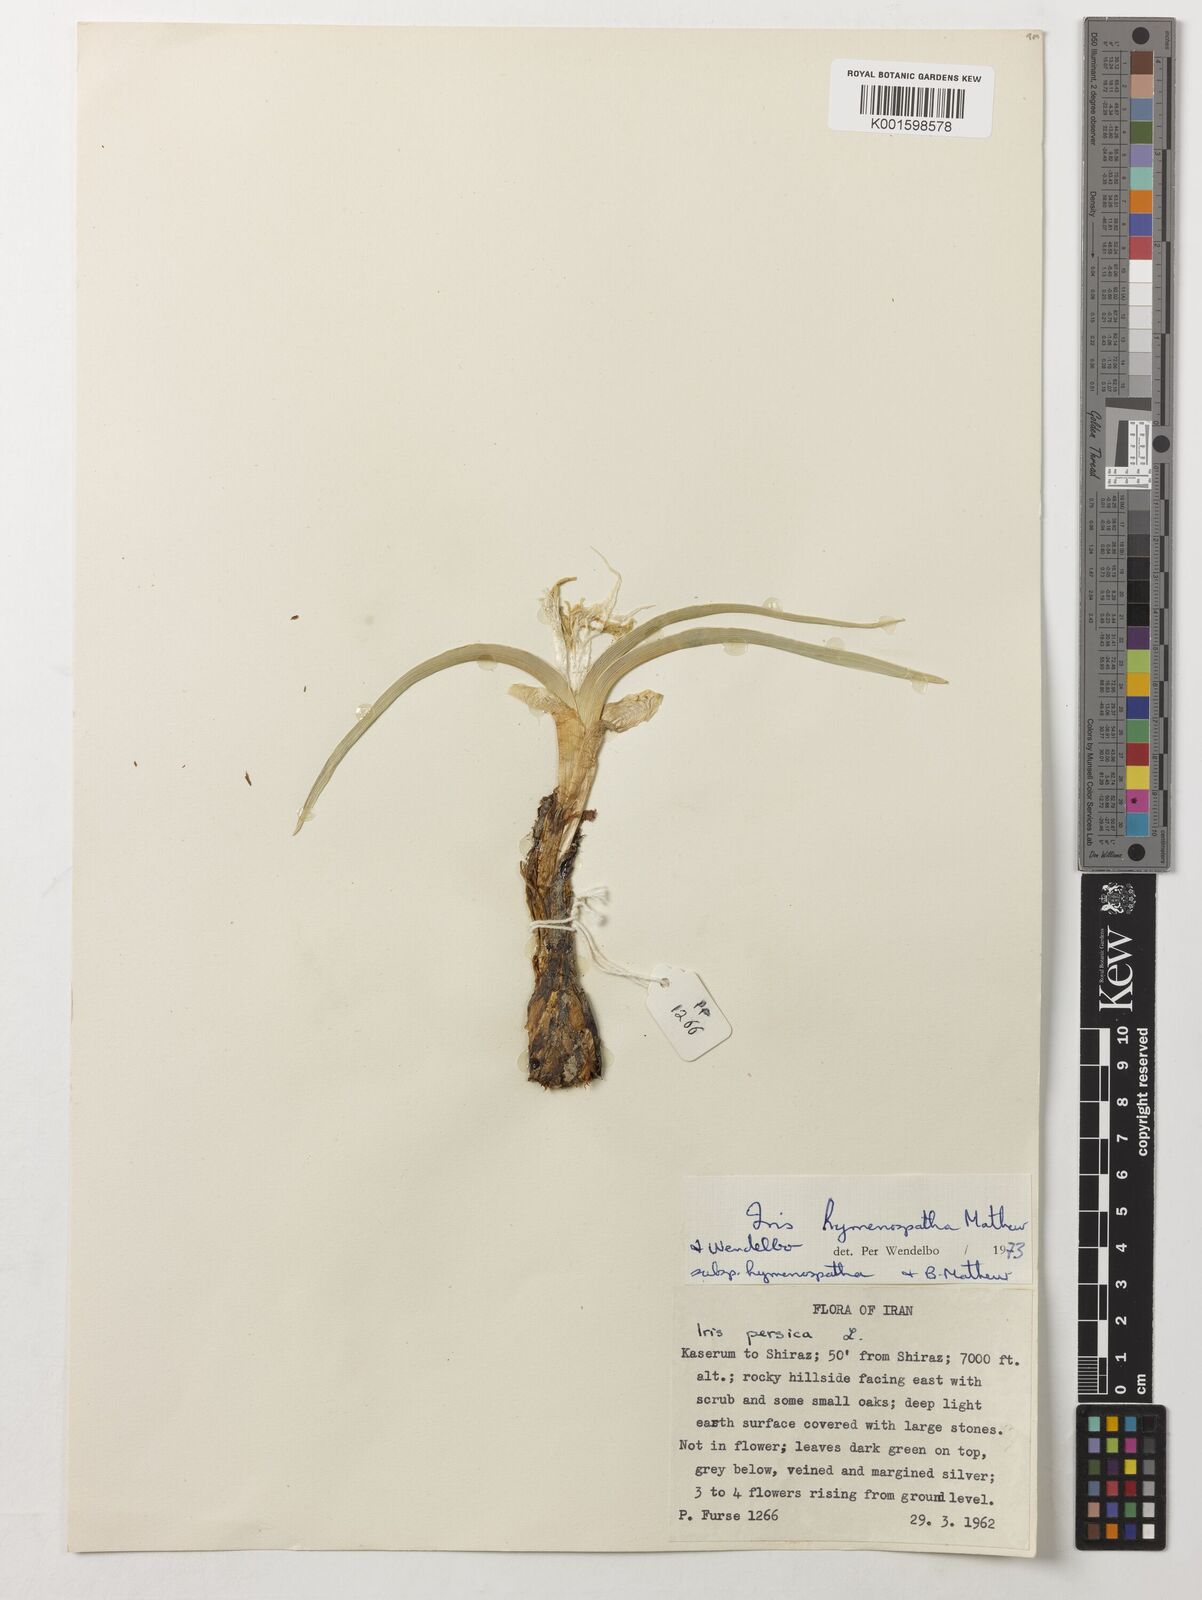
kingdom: Plantae
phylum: Tracheophyta
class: Liliopsida
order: Asparagales
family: Iridaceae
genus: Iris
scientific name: Iris hymenospatha
